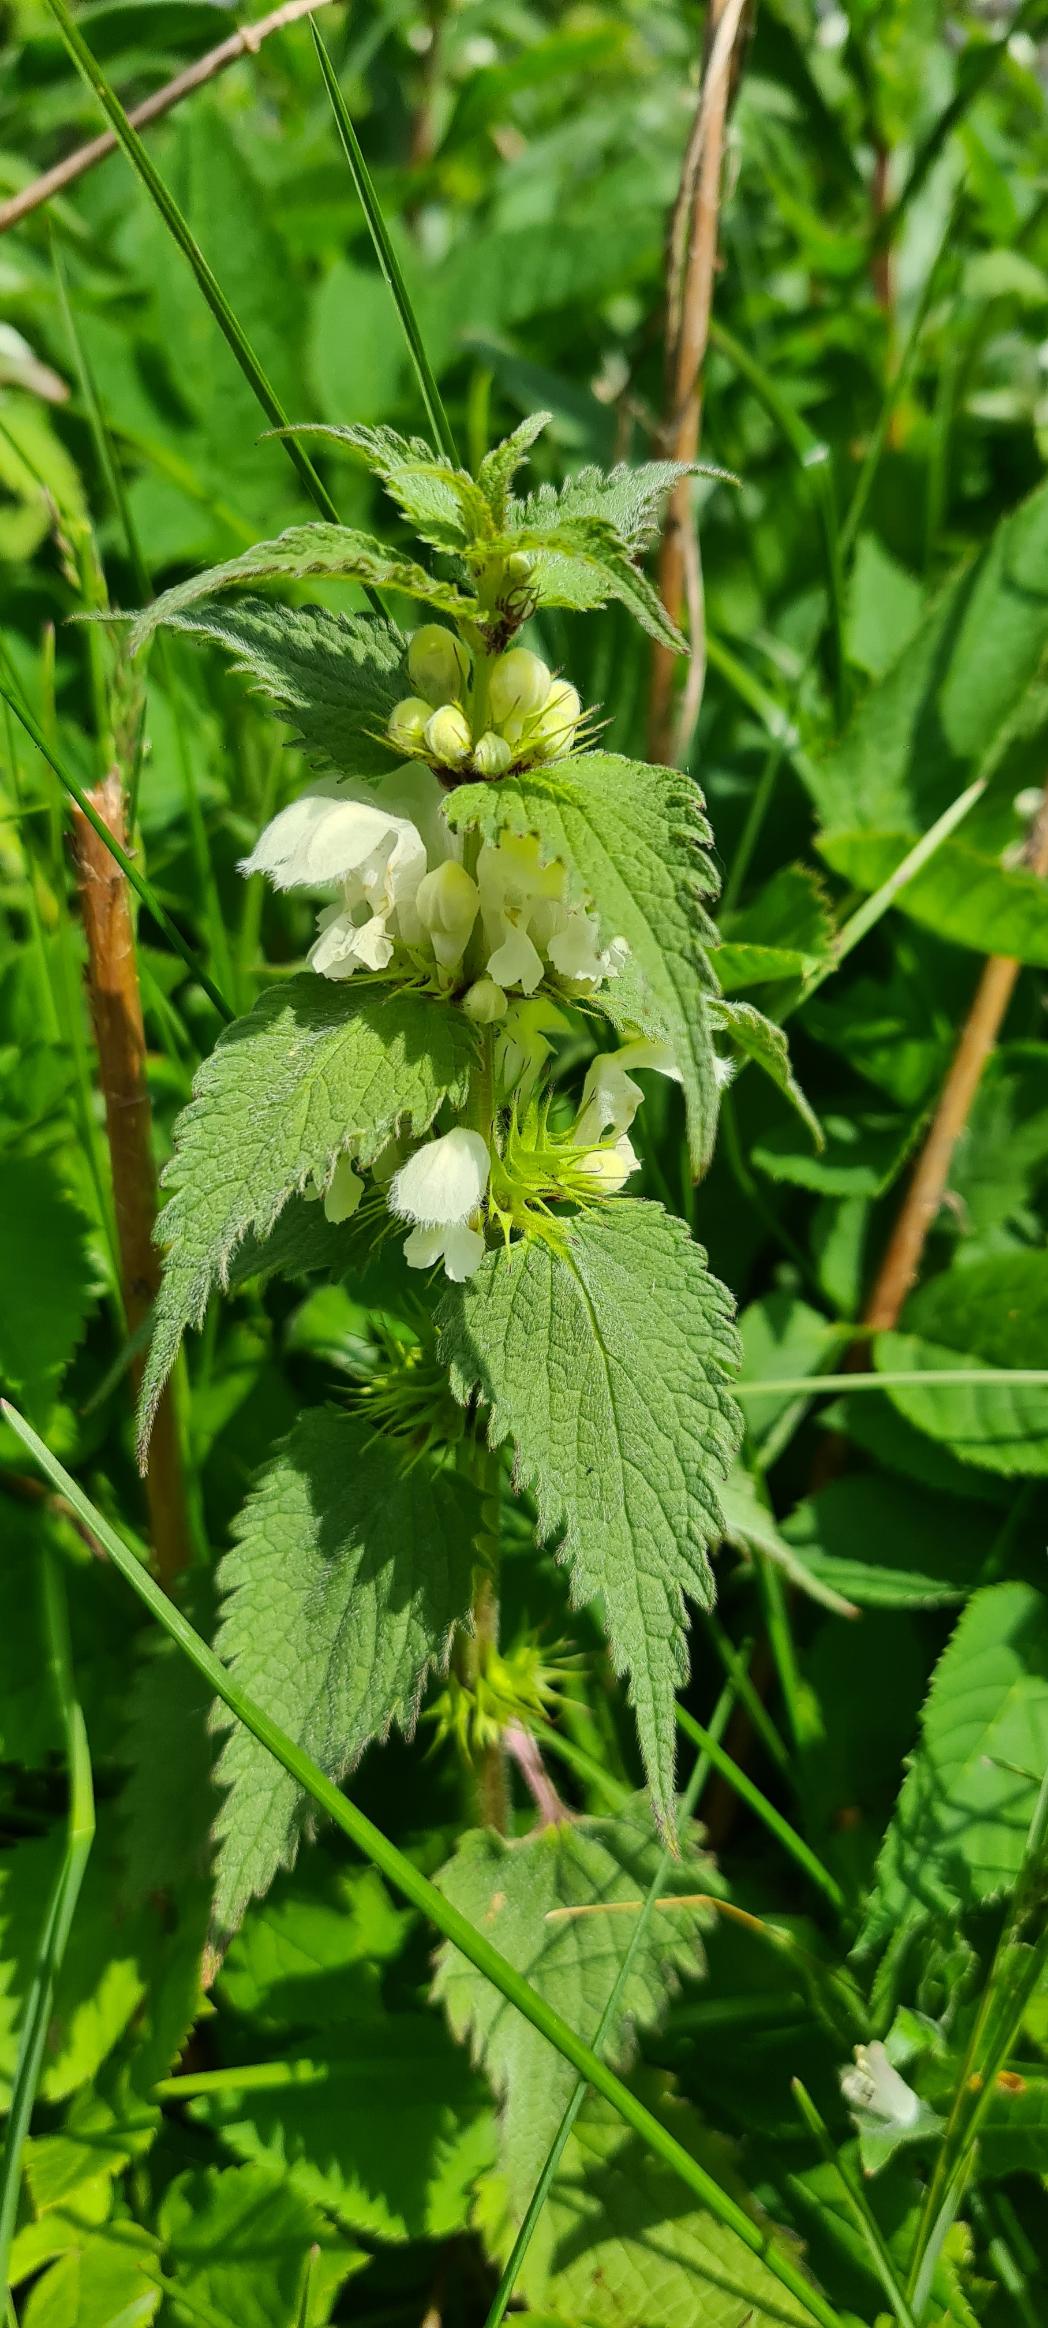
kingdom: Plantae
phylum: Tracheophyta
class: Magnoliopsida
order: Lamiales
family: Lamiaceae
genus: Lamium
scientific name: Lamium album
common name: Døvnælde
